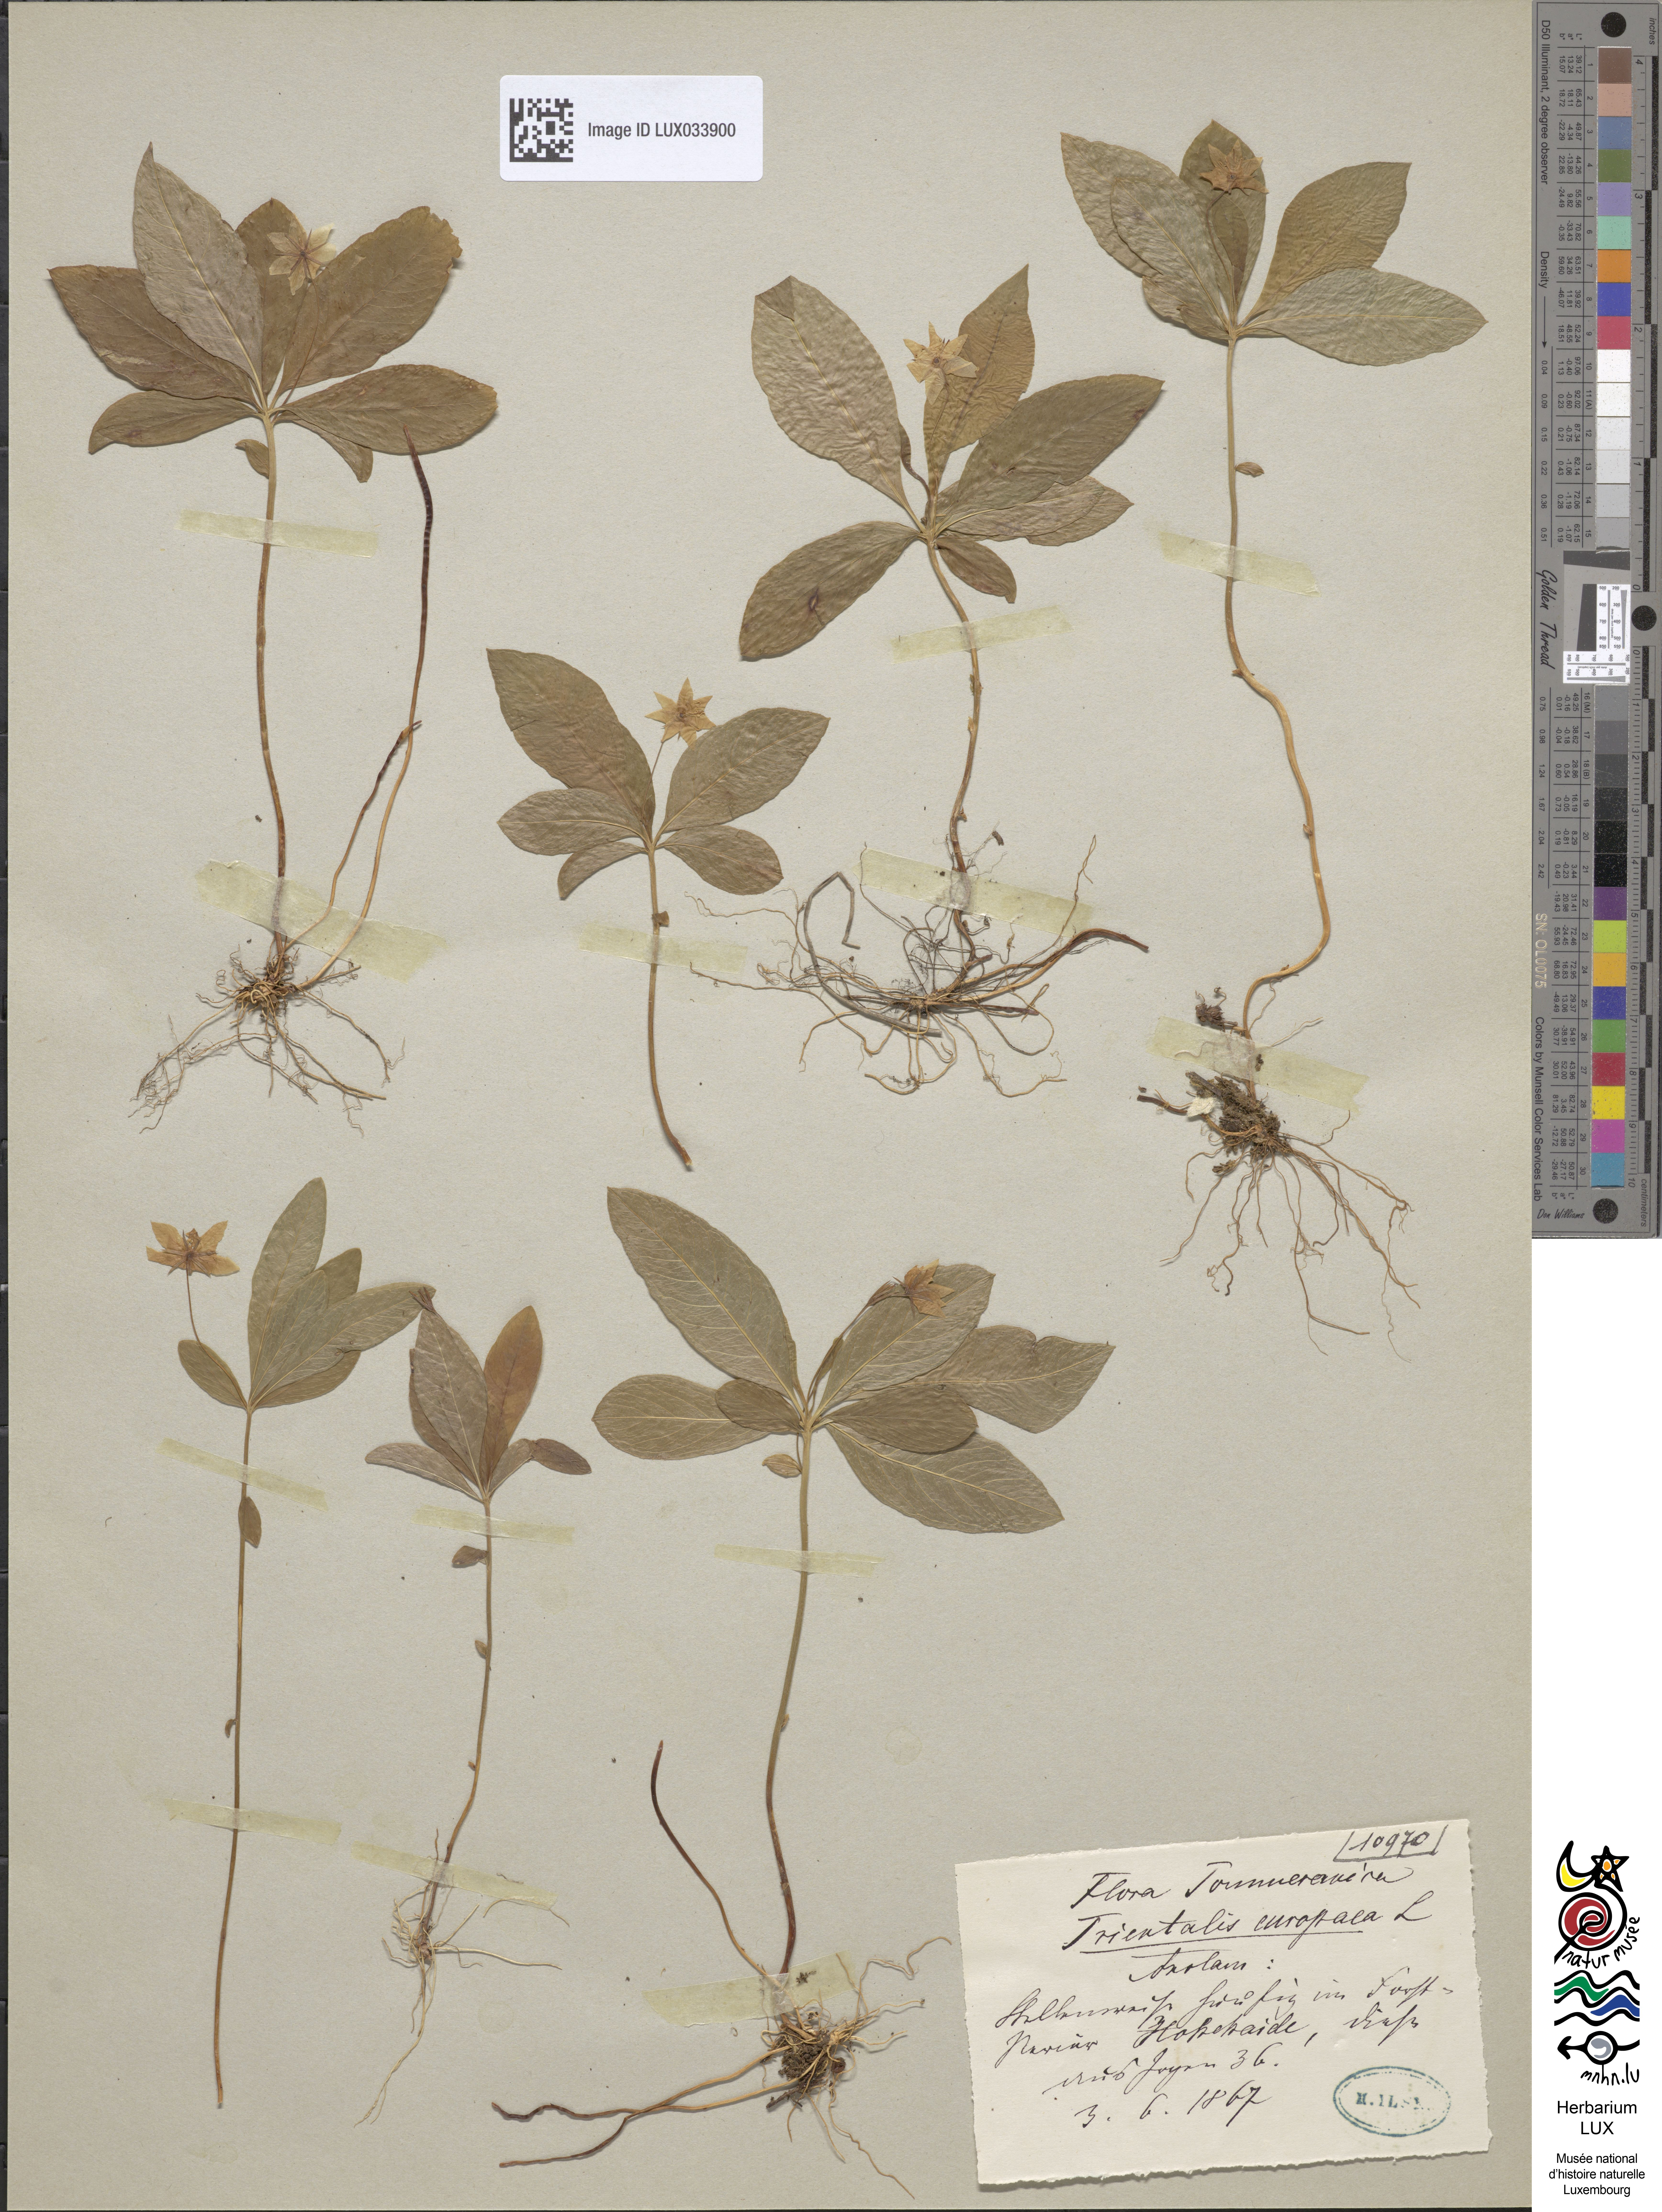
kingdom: Plantae
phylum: Tracheophyta
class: Magnoliopsida
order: Ericales
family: Primulaceae
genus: Lysimachia
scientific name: Lysimachia europaea
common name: Arctic starflower
